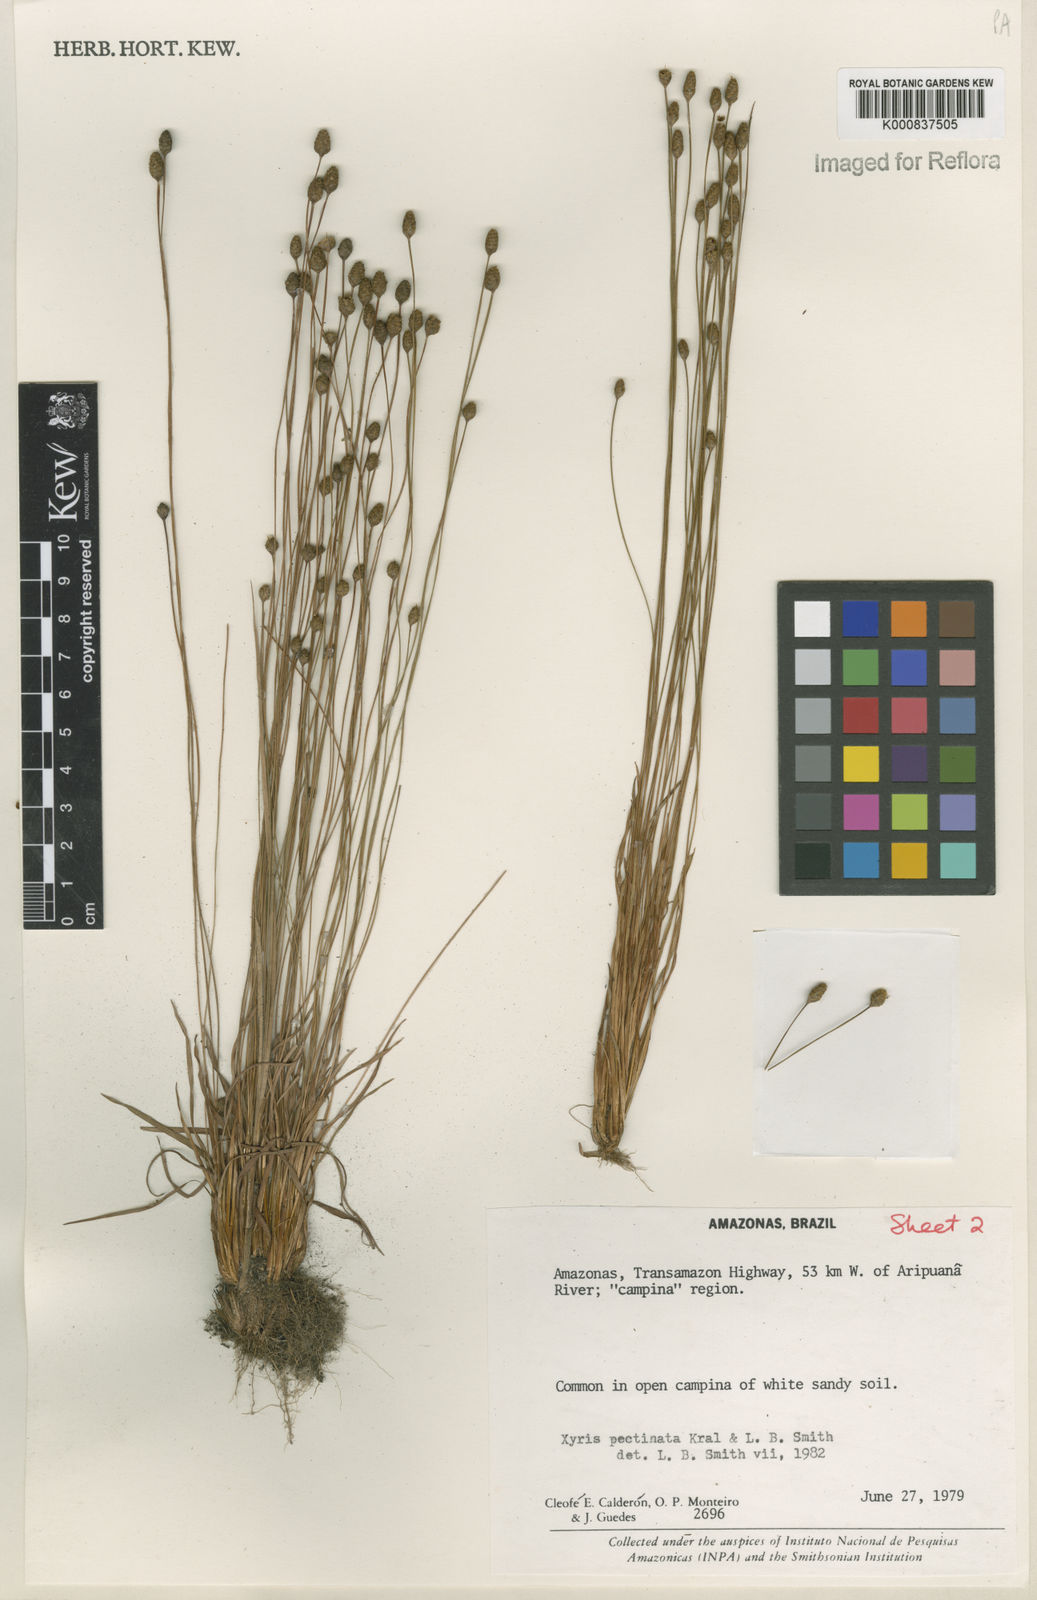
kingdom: Plantae
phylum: Tracheophyta
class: Liliopsida
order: Poales
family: Xyridaceae
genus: Xyris
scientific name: Xyris pectinata
